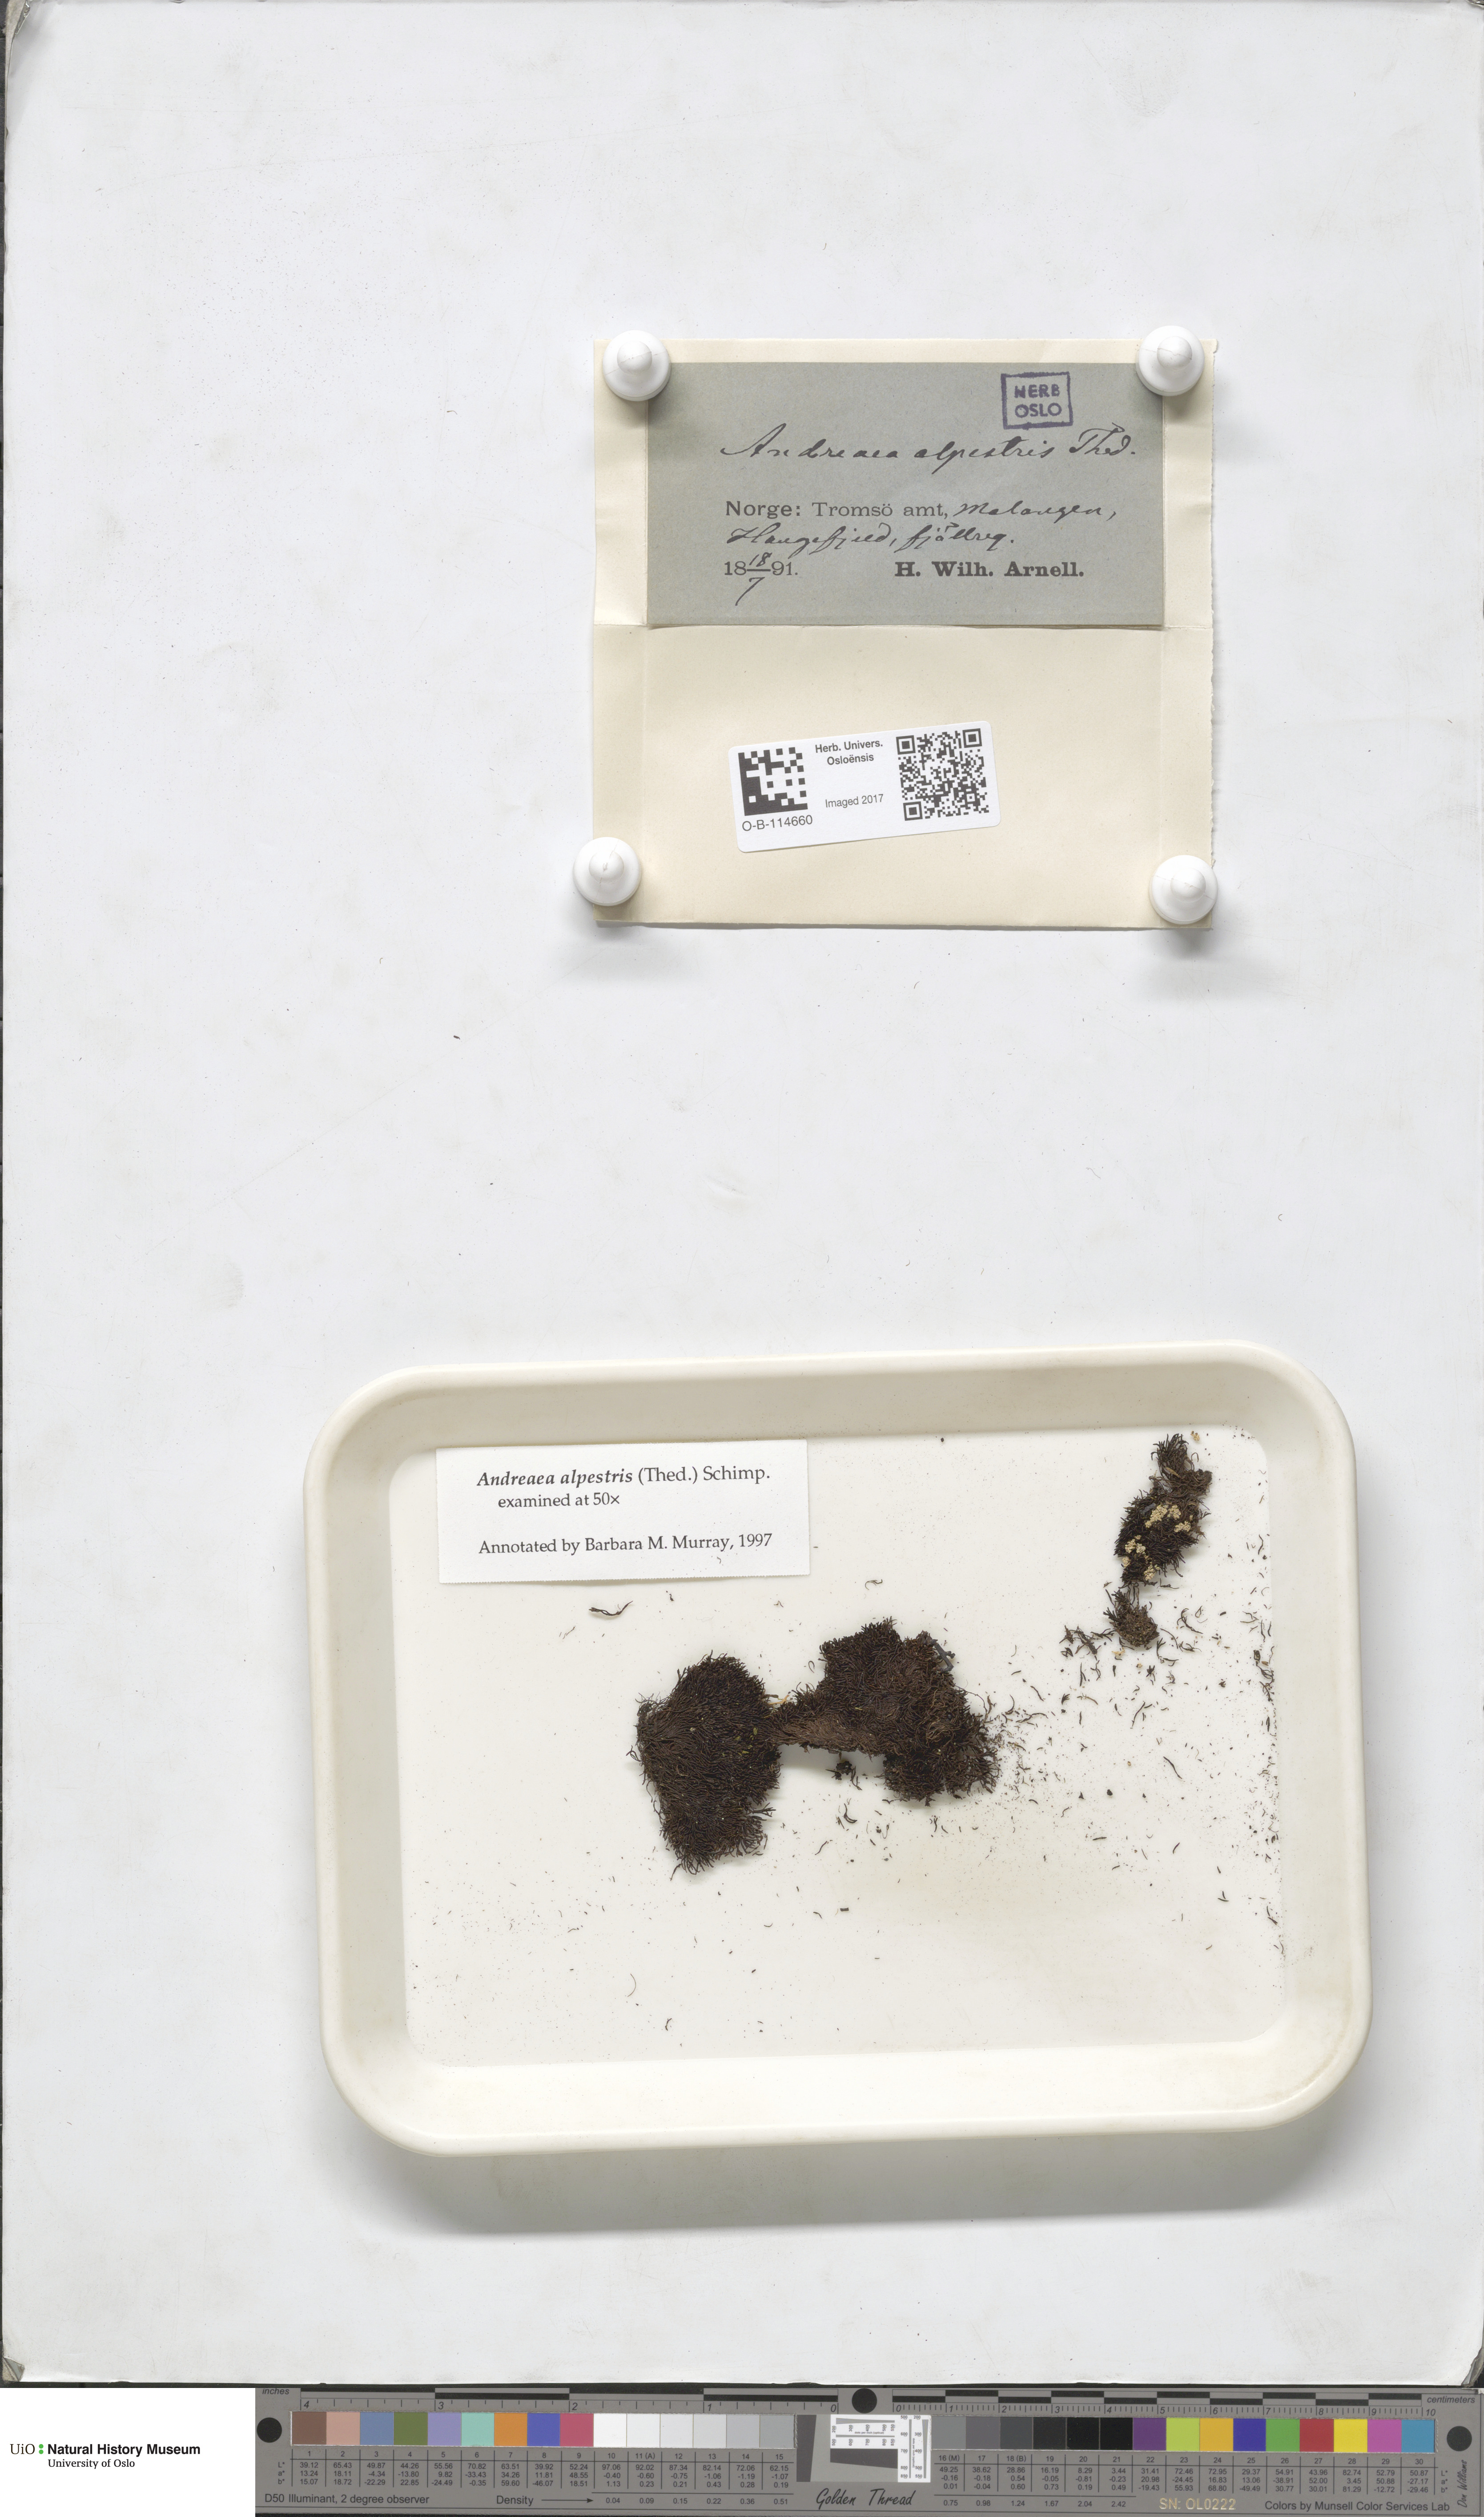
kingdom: Plantae
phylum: Bryophyta
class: Andreaeopsida
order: Andreaeales
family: Andreaeaceae
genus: Andreaea
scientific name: Andreaea alpestris
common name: Slender rock-moss
